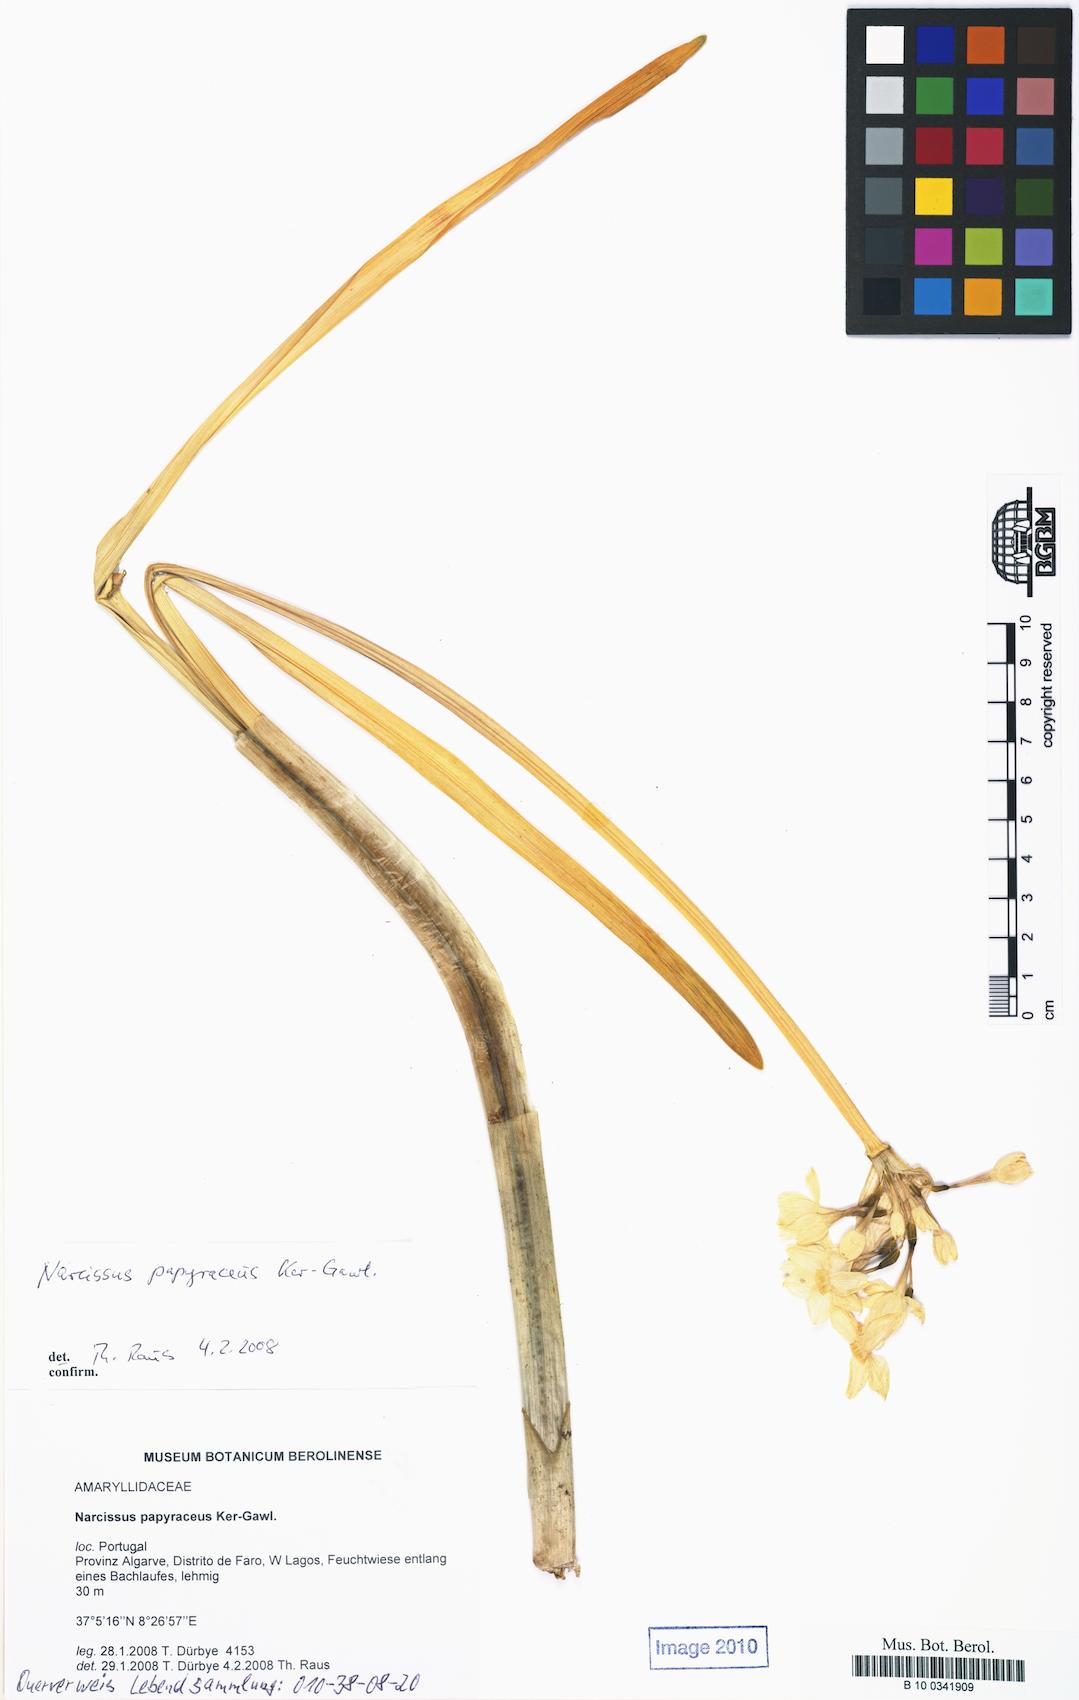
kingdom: Plantae
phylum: Tracheophyta
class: Liliopsida
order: Asparagales
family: Amaryllidaceae
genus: Narcissus
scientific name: Narcissus papyraceus
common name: Paper-white daffodil
